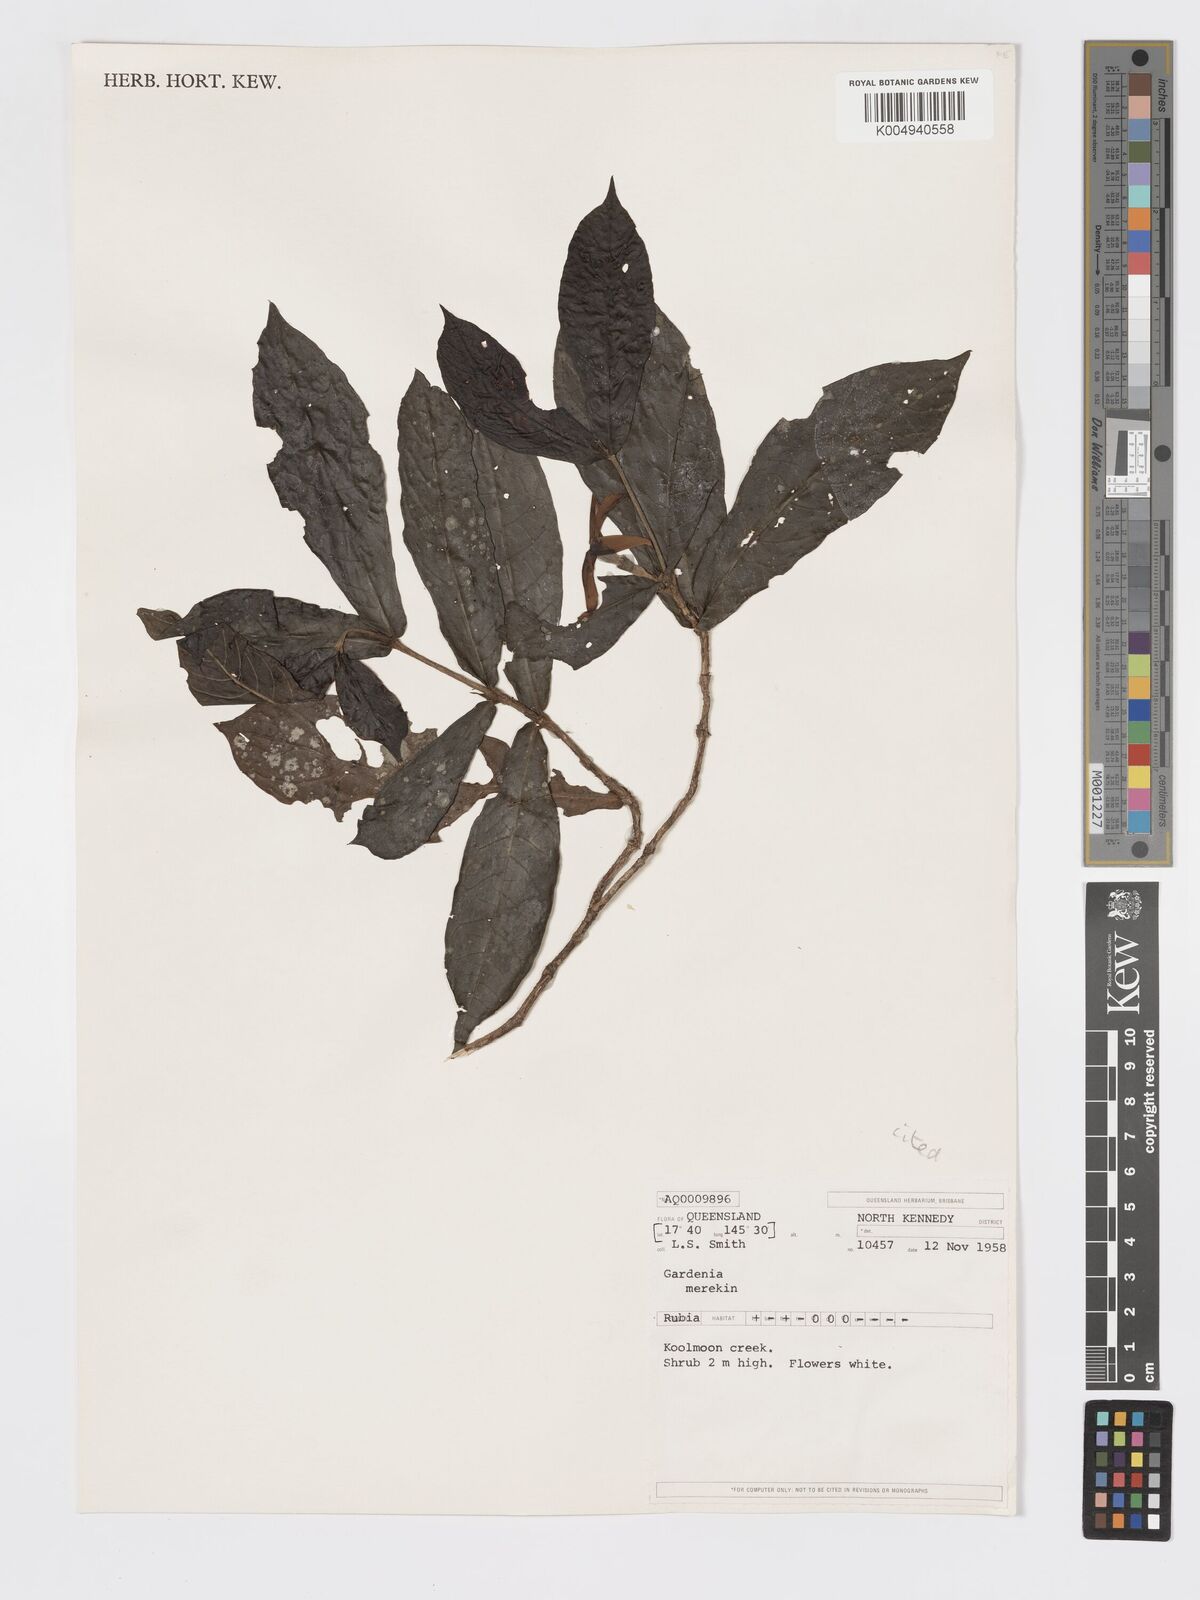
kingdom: Plantae
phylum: Tracheophyta
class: Magnoliopsida
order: Gentianales
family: Rubiaceae
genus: Atractocarpus
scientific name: Atractocarpus merikin
